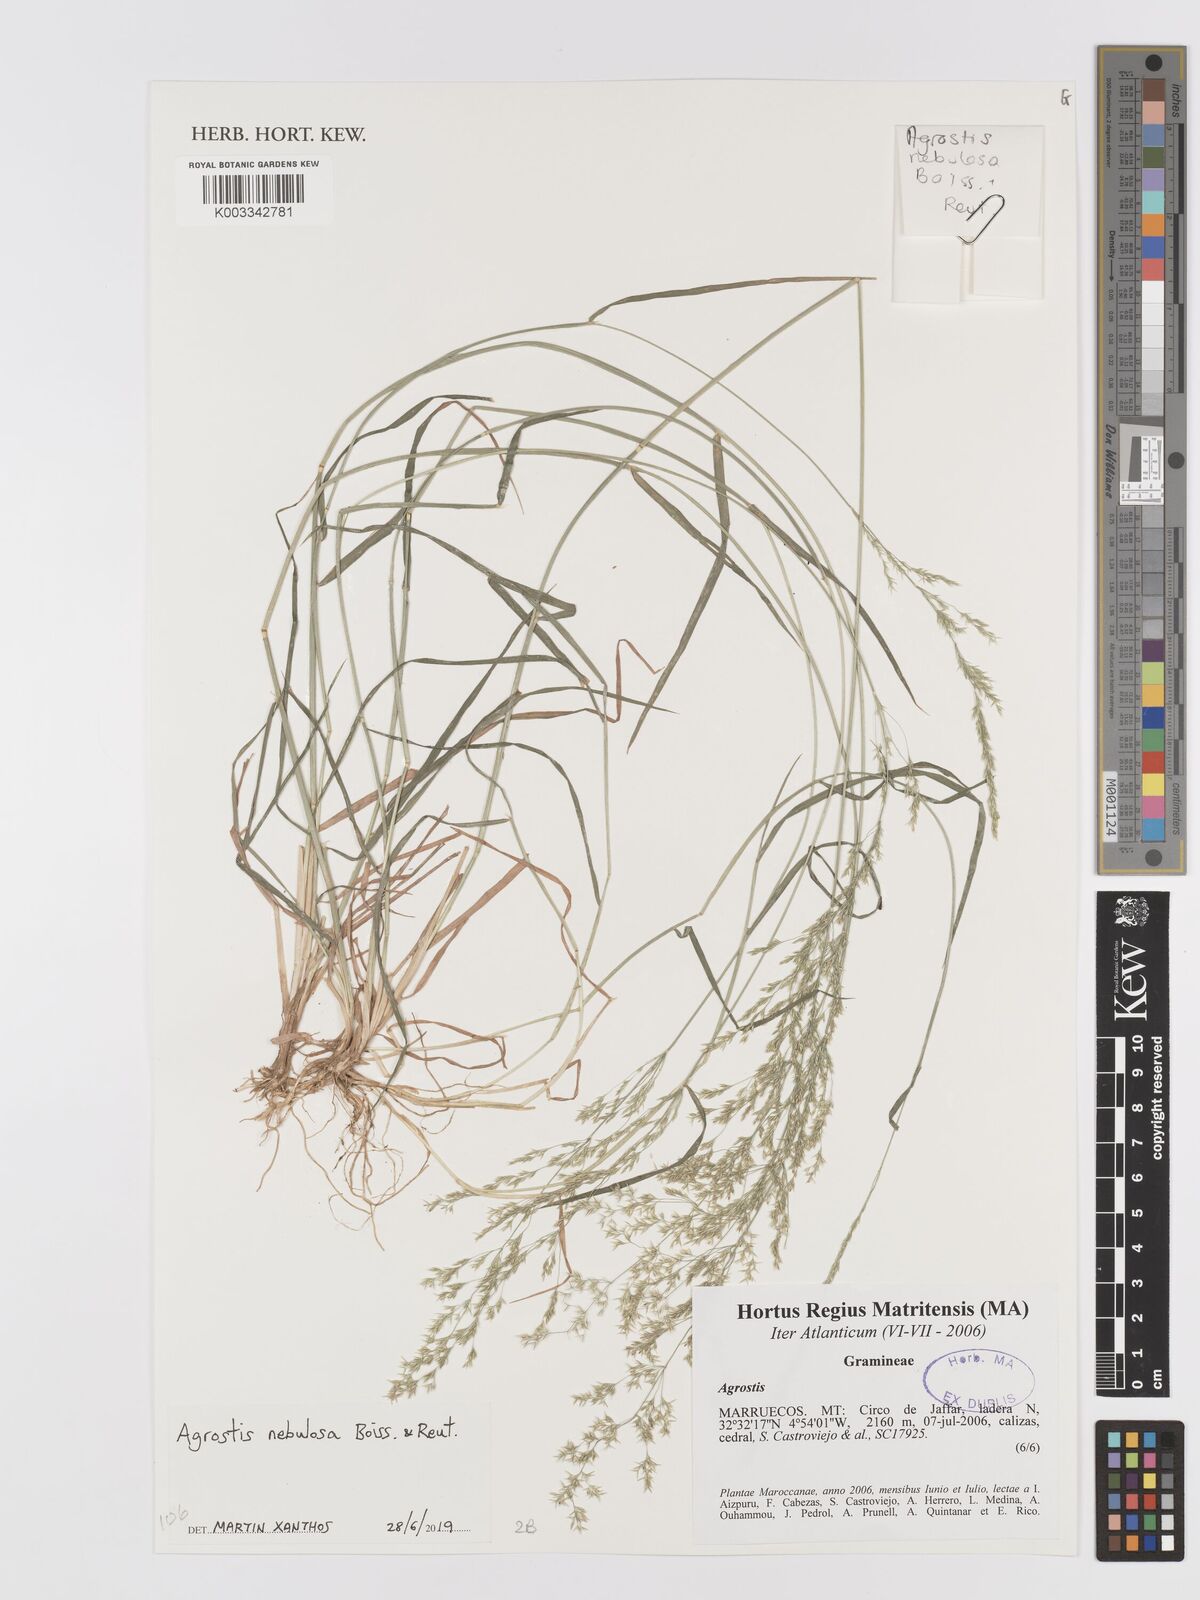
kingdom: Plantae
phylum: Tracheophyta
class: Liliopsida
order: Poales
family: Poaceae
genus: Agrostis
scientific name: Agrostis nebulosa
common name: Cloud grass
